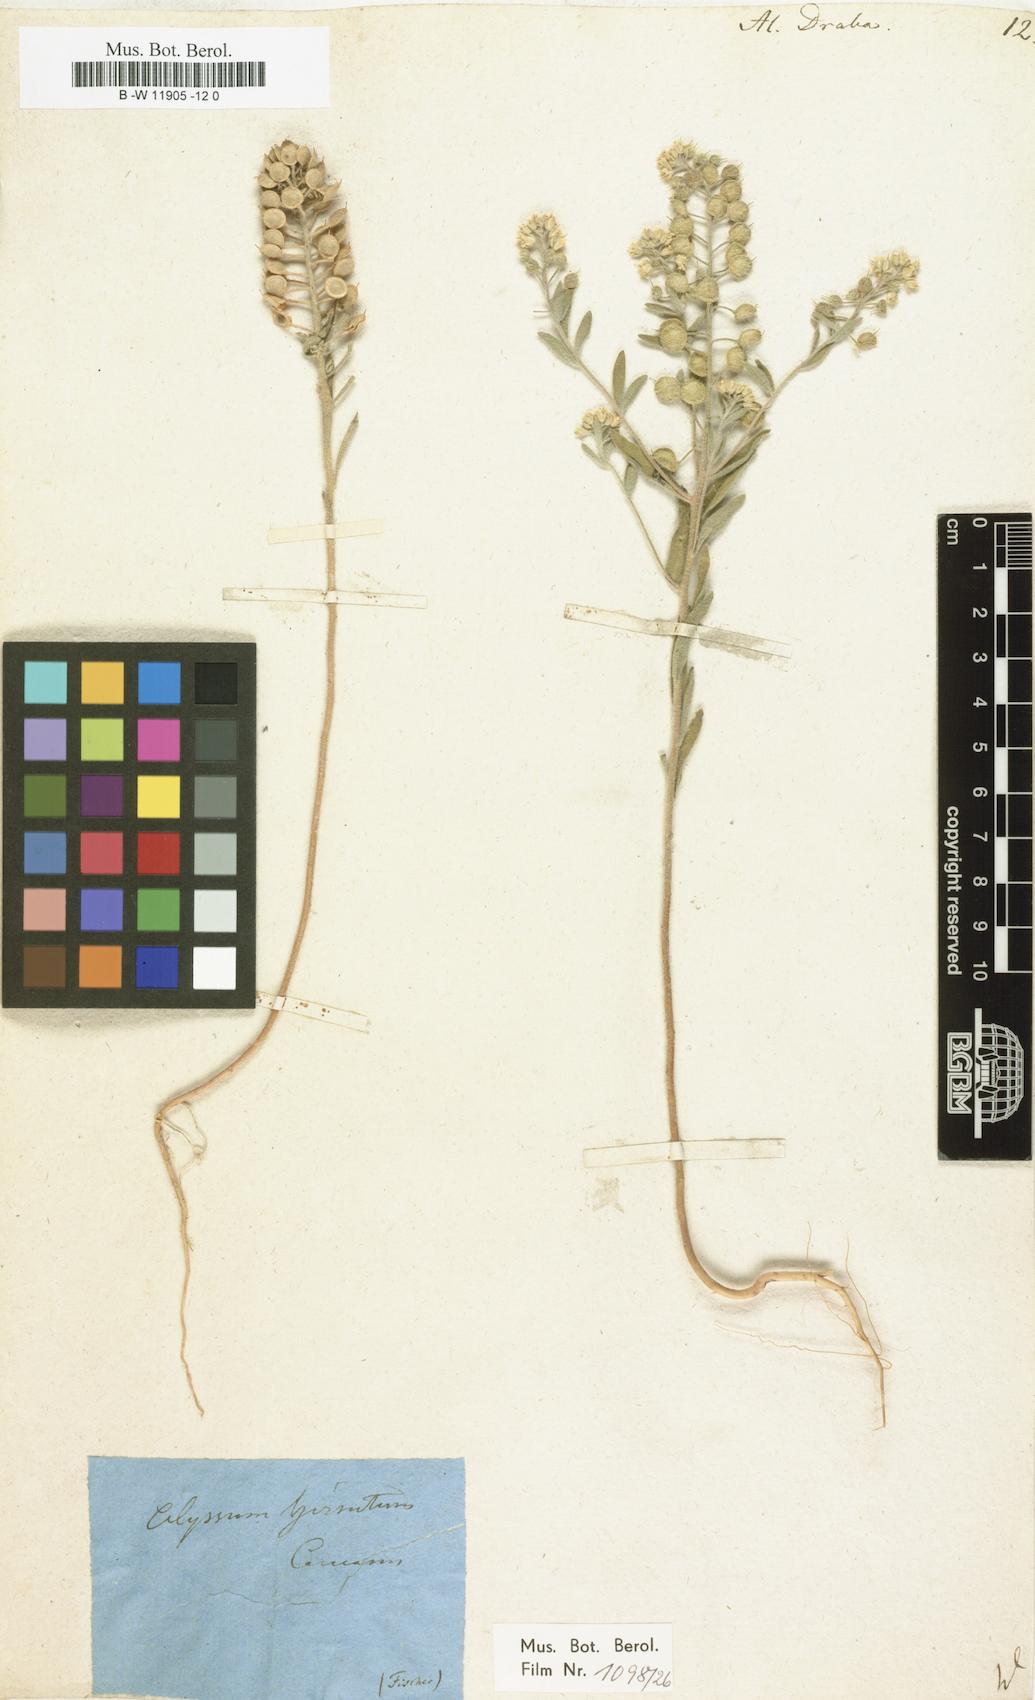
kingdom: Plantae
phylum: Tracheophyta
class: Magnoliopsida
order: Brassicales
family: Brassicaceae
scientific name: Brassicaceae
